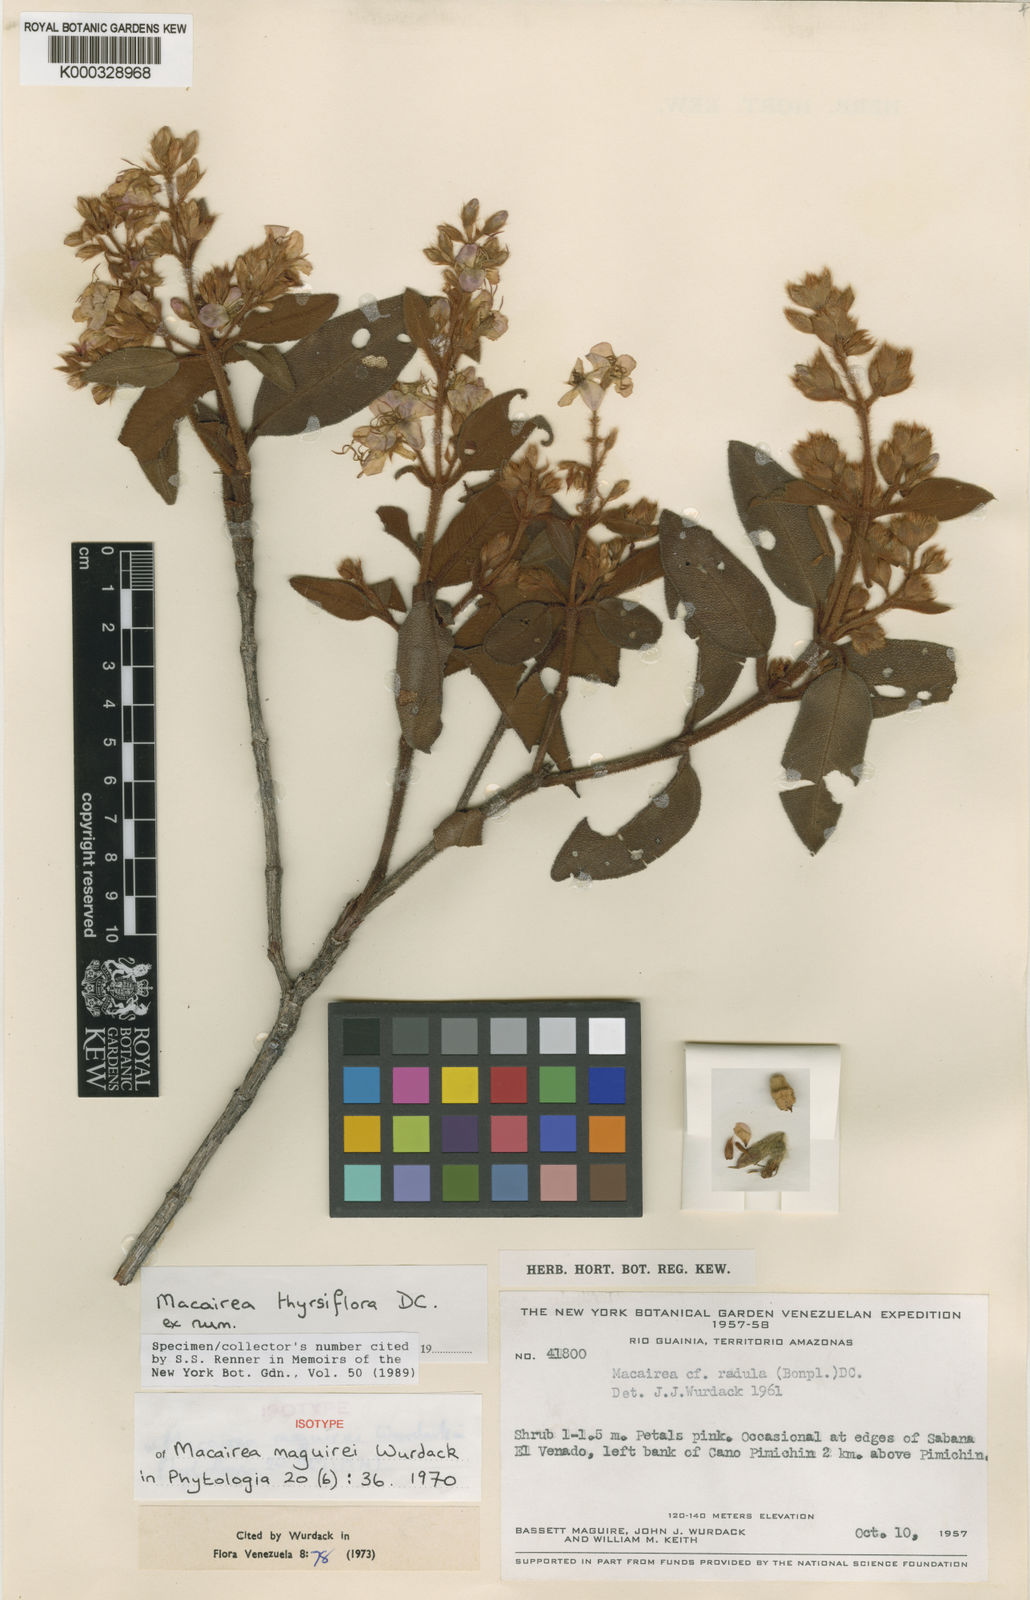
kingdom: Plantae
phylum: Tracheophyta
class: Magnoliopsida
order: Myrtales
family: Melastomataceae
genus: Macairea
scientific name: Macairea thyrsiflora
